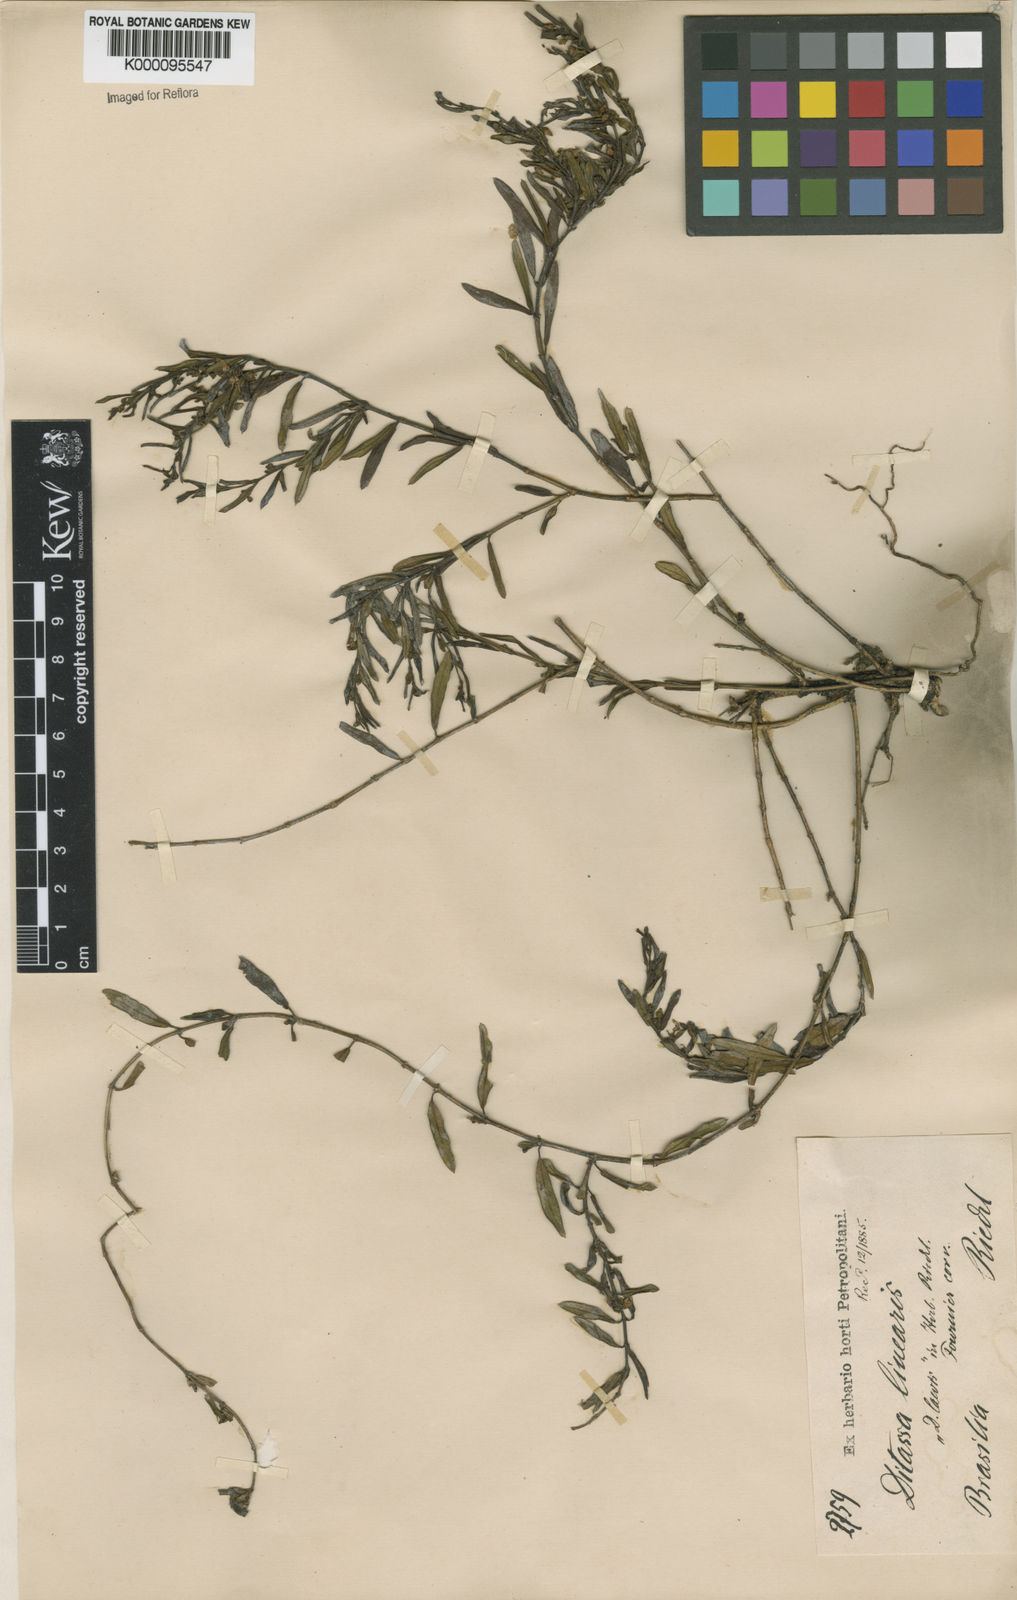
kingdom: Plantae
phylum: Tracheophyta
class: Magnoliopsida
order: Gentianales
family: Apocynaceae
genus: Ditassa
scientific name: Ditassa linearis
